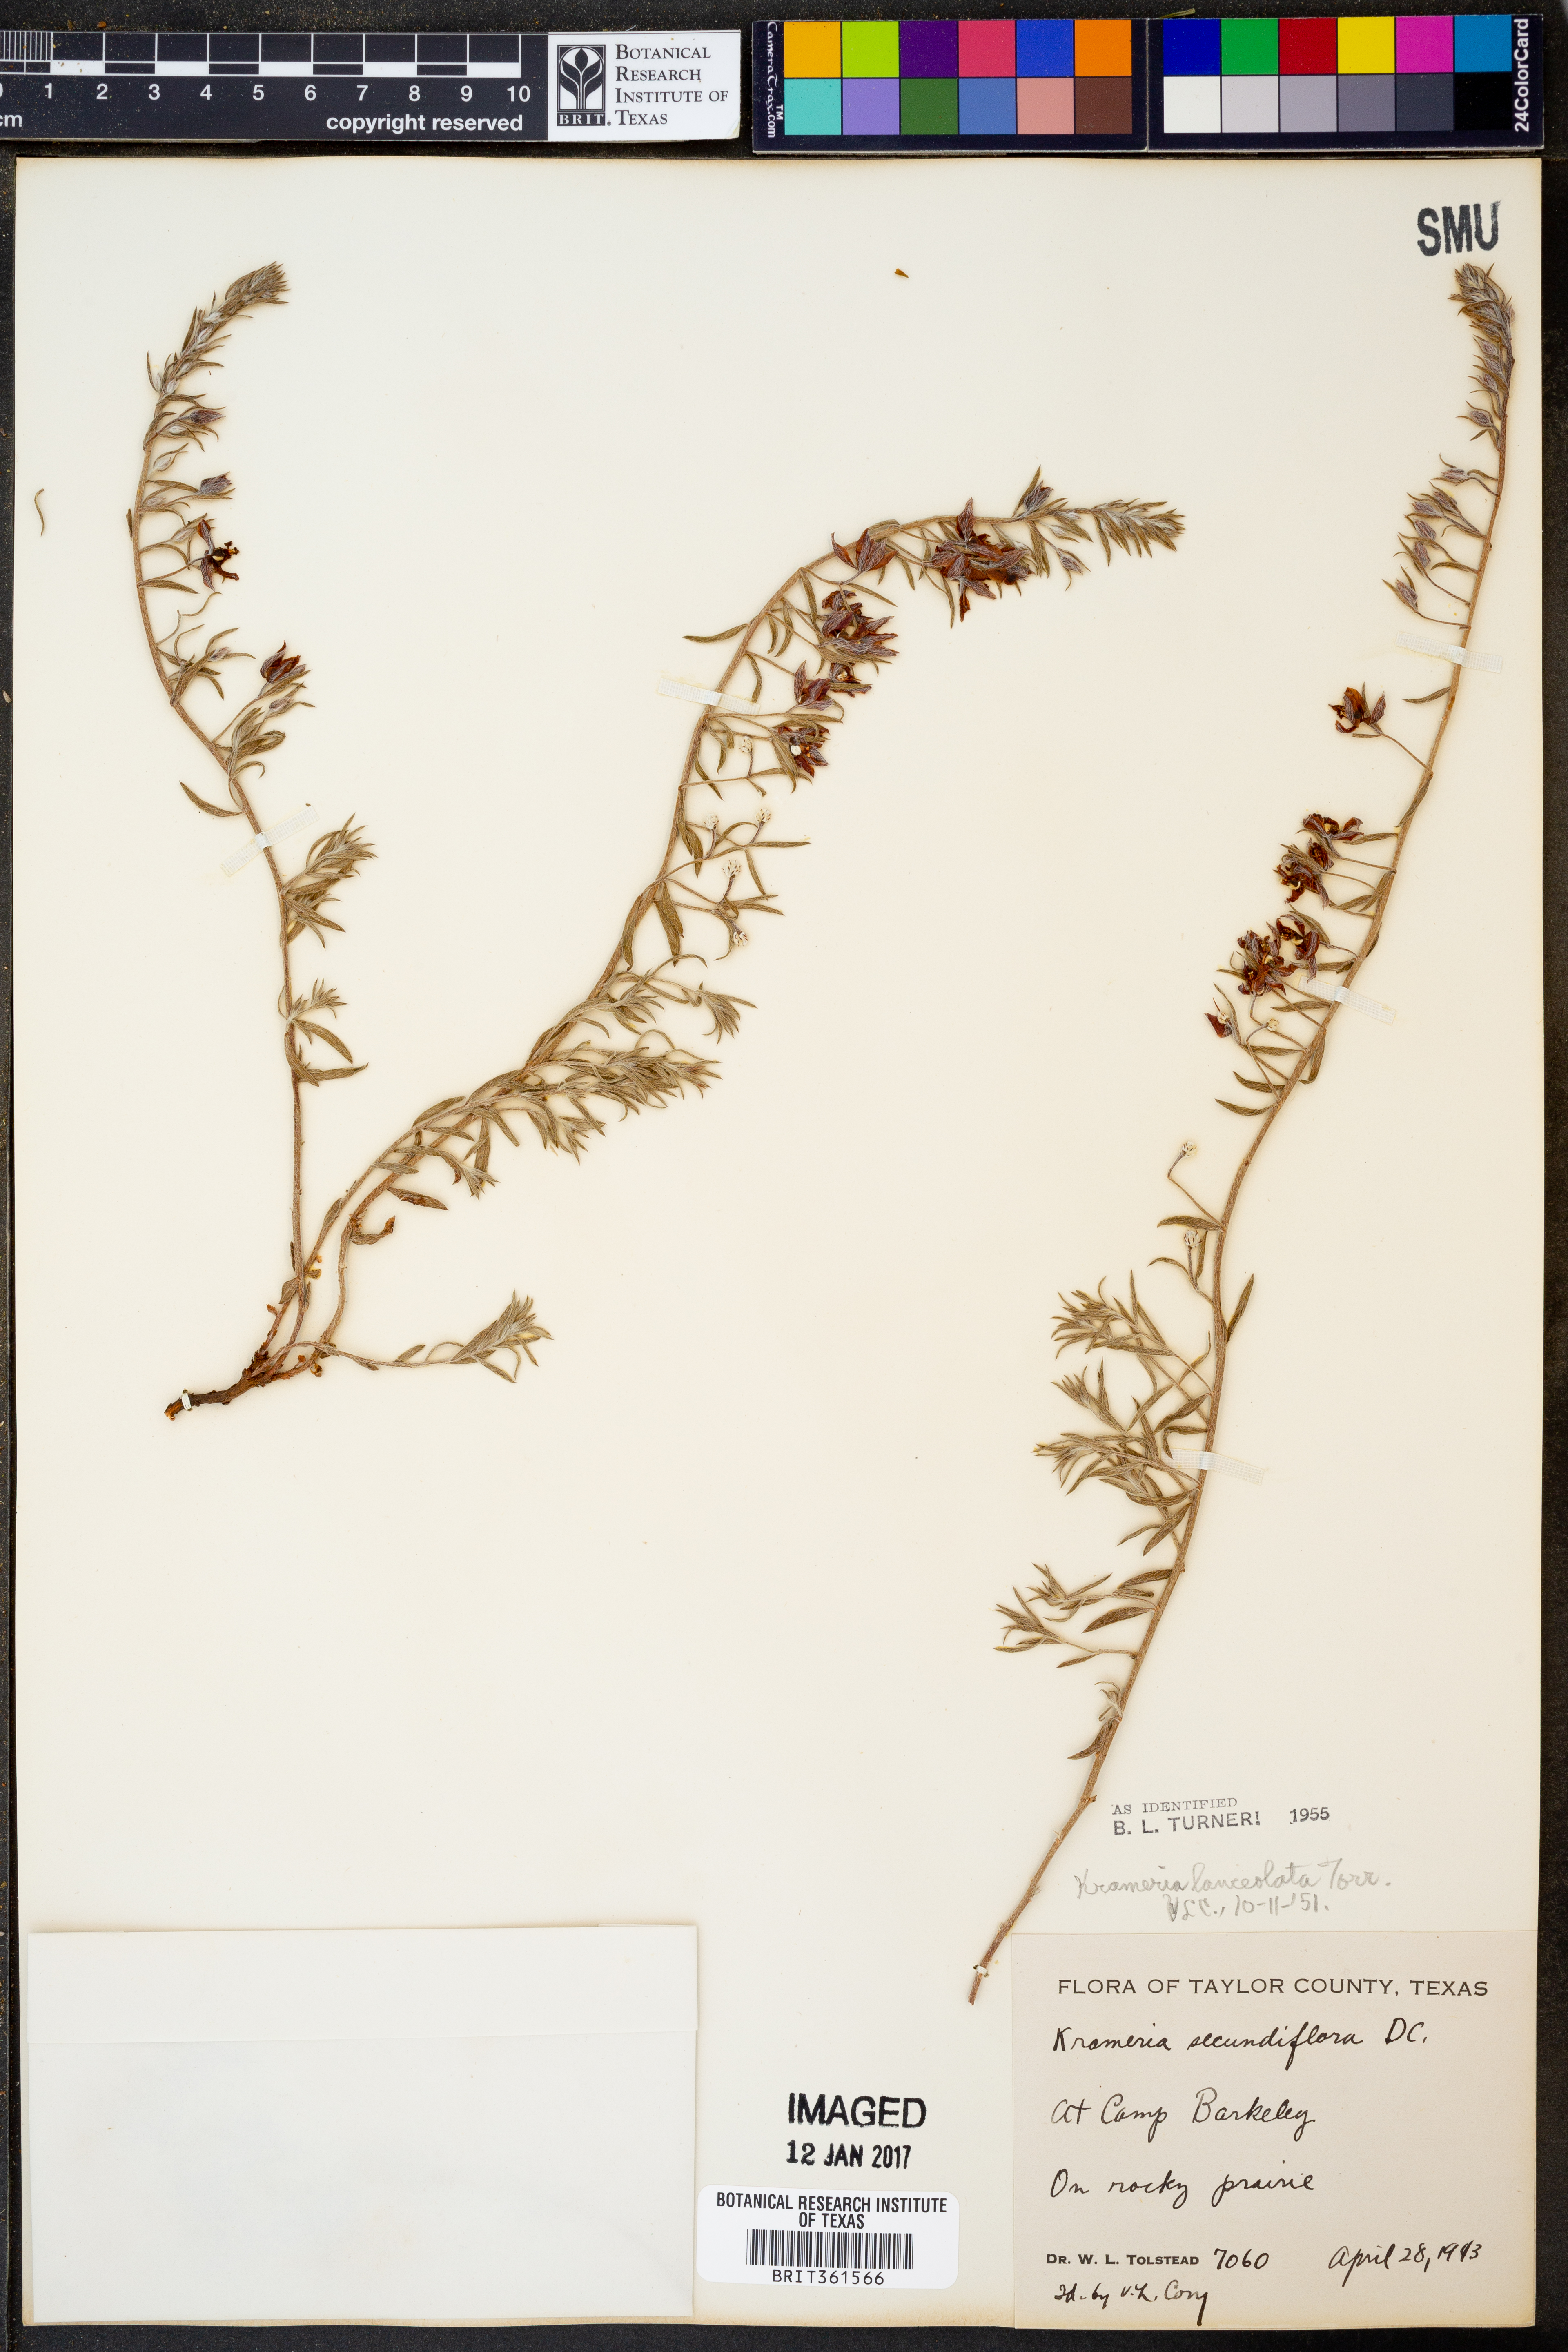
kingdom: Plantae
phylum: Tracheophyta
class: Magnoliopsida
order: Zygophyllales
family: Krameriaceae
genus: Krameria
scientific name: Krameria lanceolata
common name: Ratany
